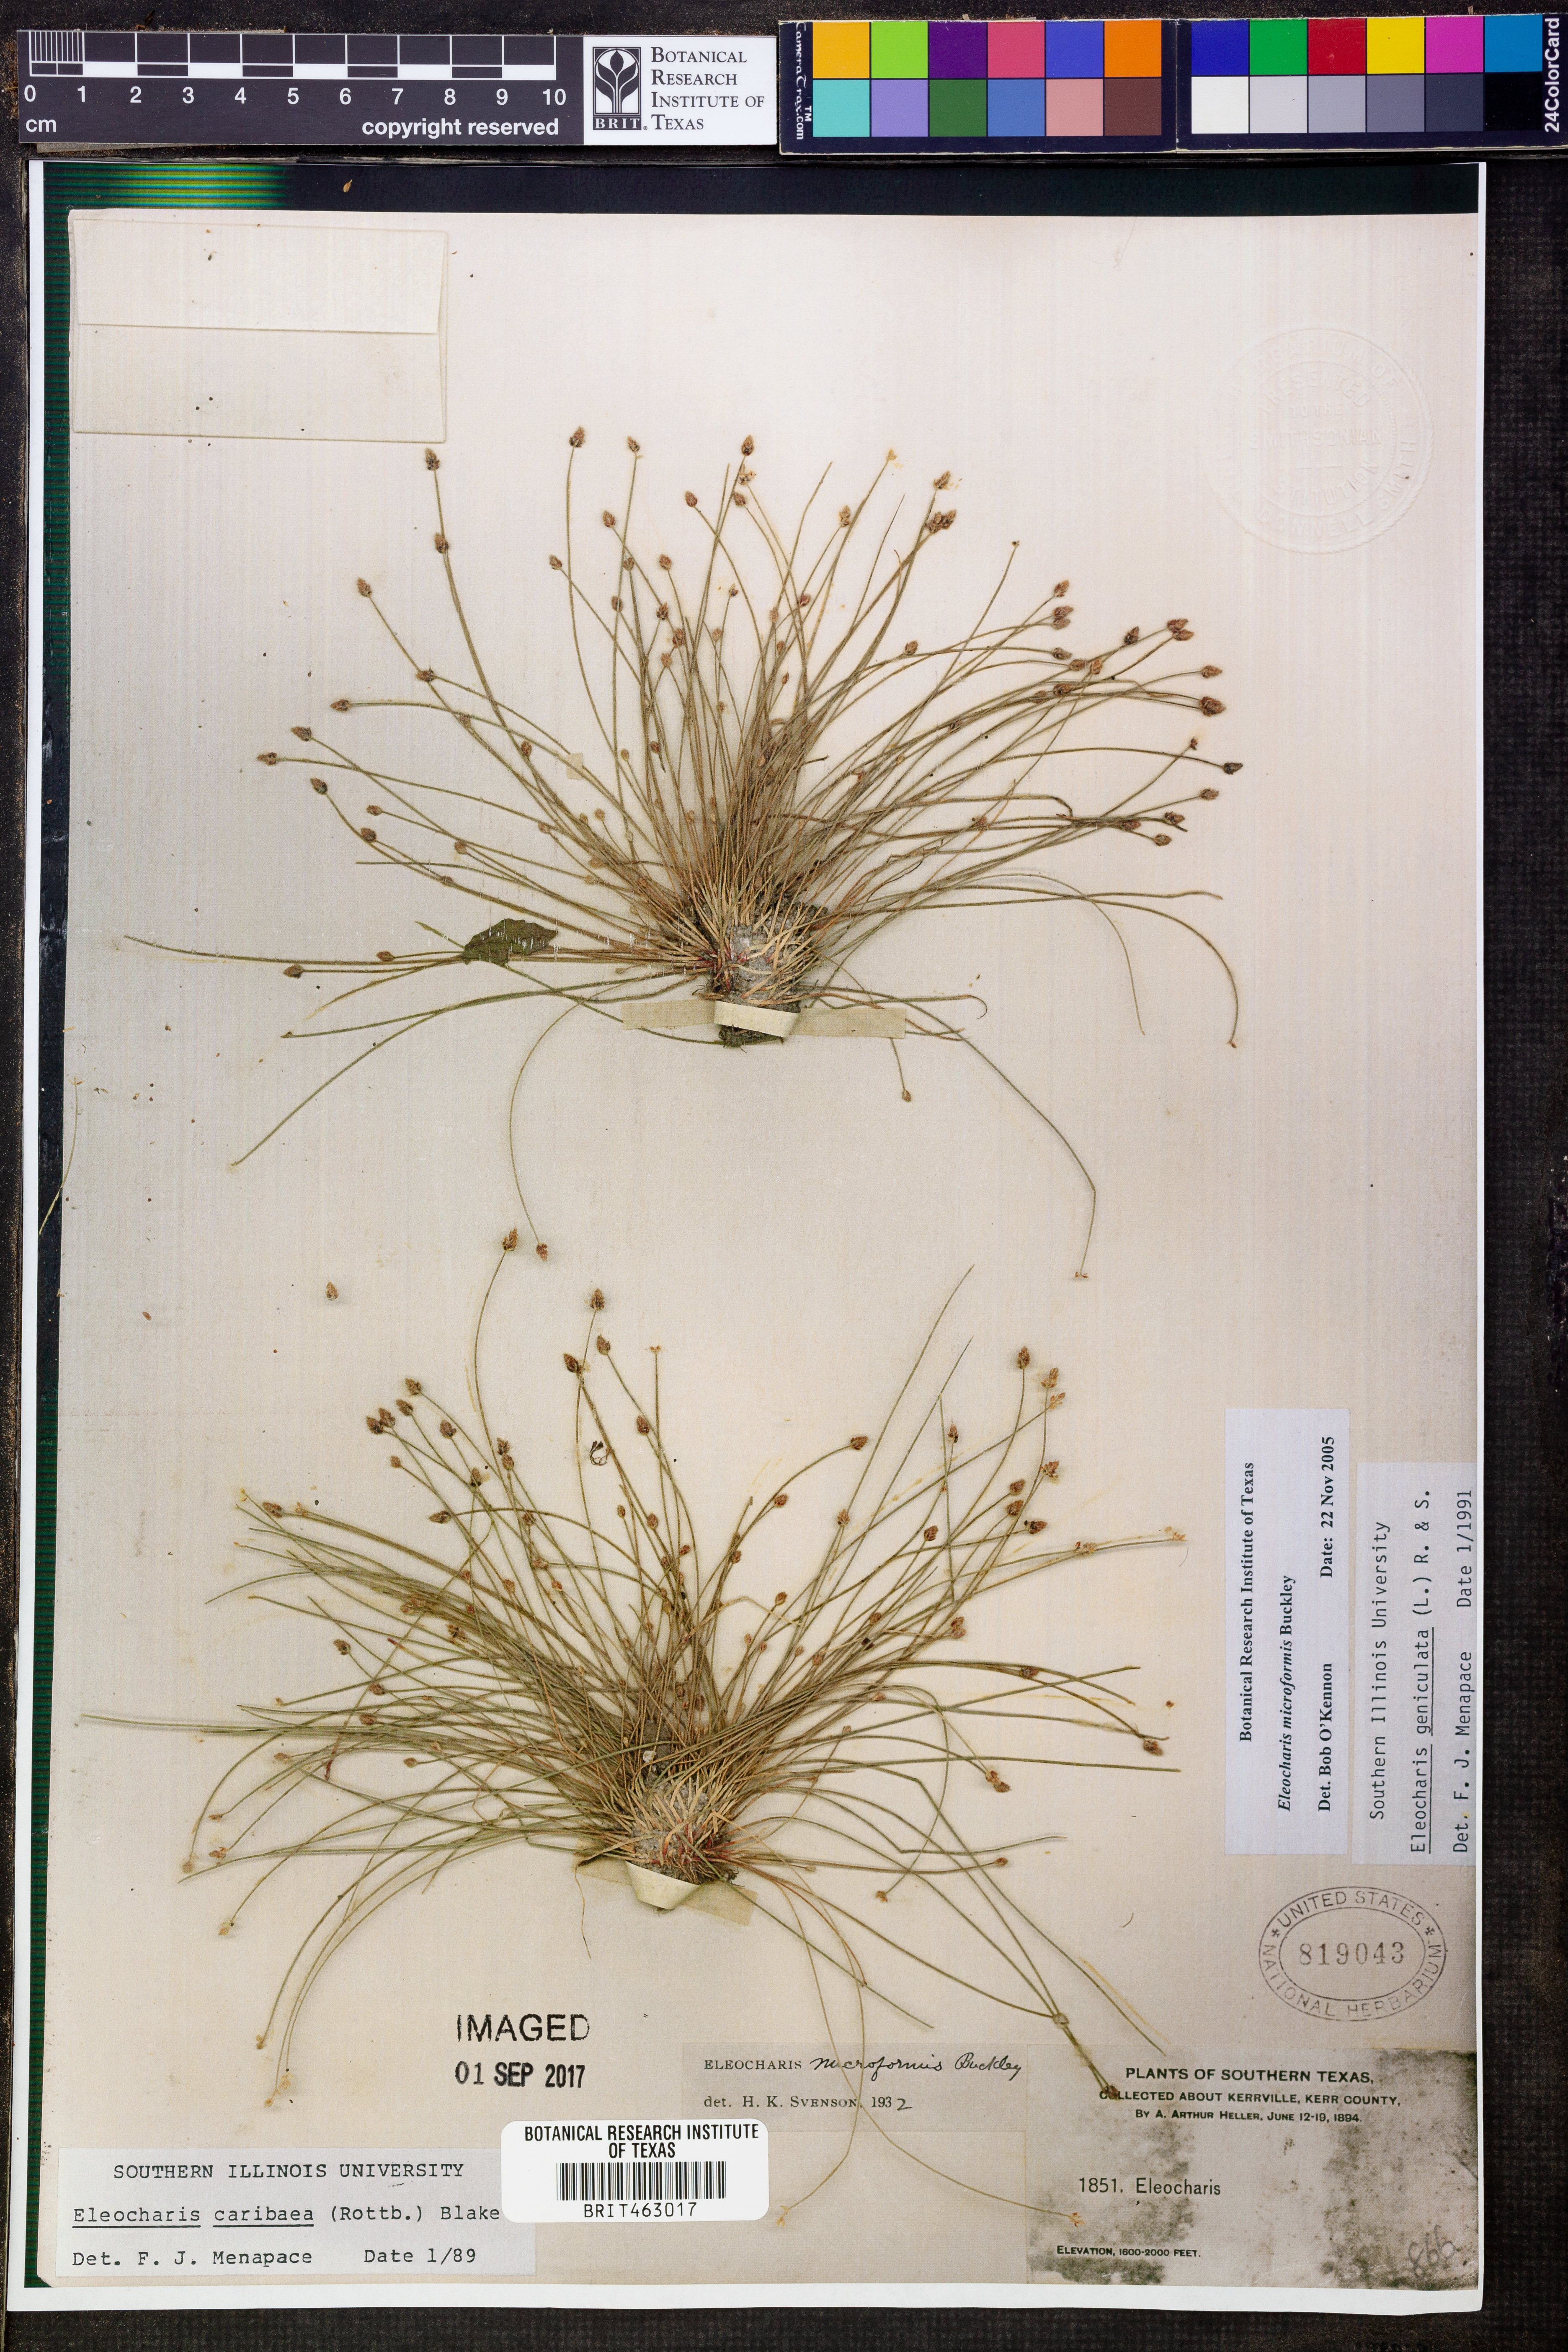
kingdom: Plantae
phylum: Tracheophyta
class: Liliopsida
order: Poales
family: Cyperaceae
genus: Eleocharis
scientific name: Eleocharis microformis
